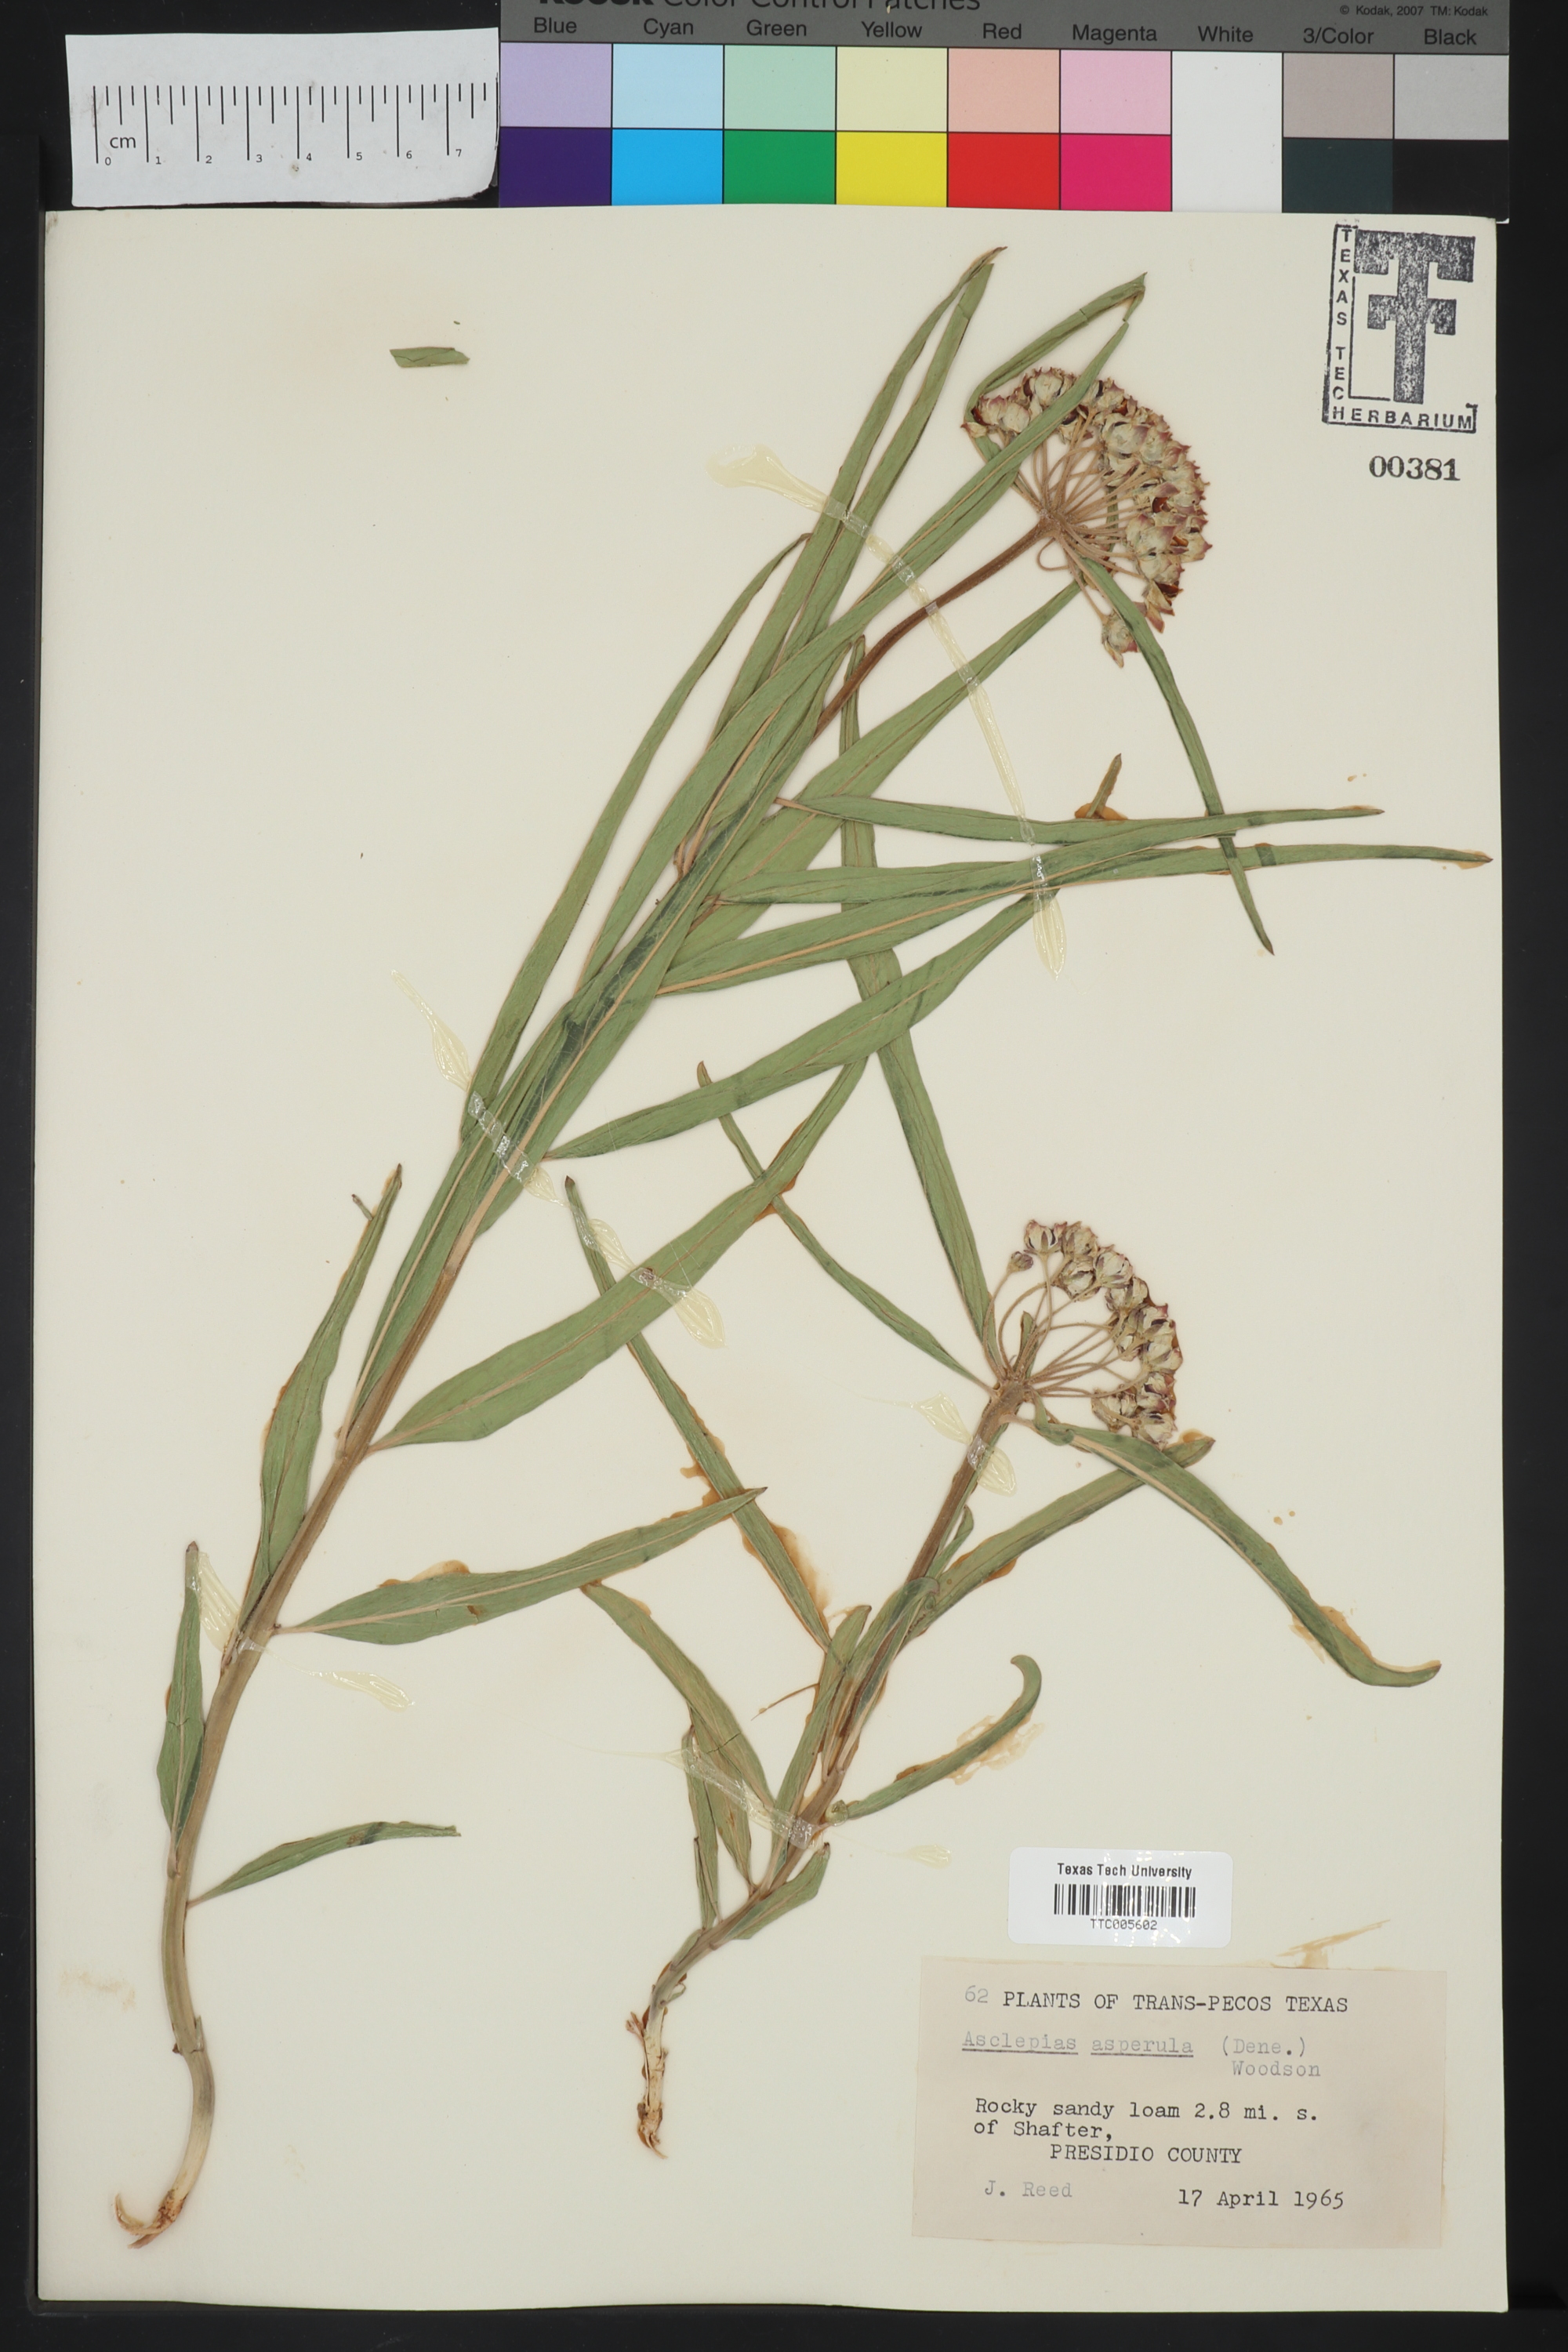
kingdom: Plantae
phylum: Tracheophyta
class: Magnoliopsida
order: Gentianales
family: Apocynaceae
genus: Asclepias
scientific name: Asclepias asperula
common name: Antelope horns
